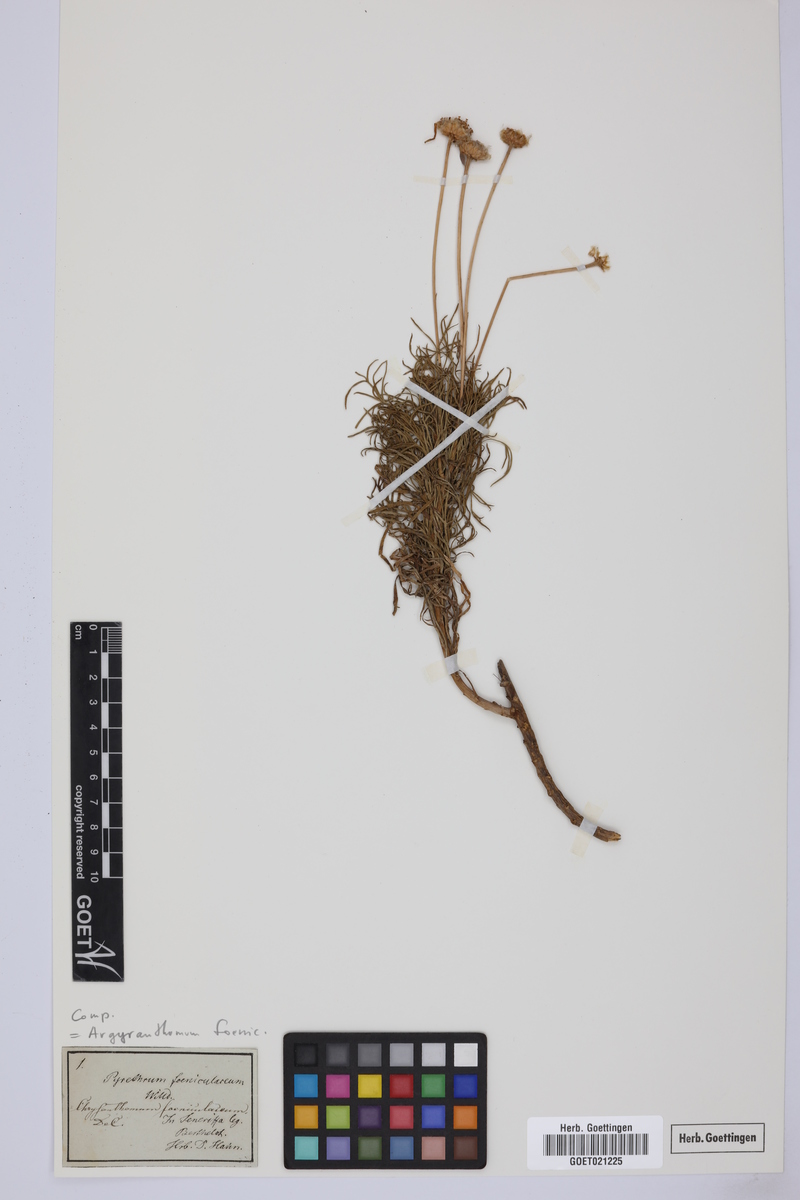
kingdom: Plantae
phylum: Tracheophyta
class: Magnoliopsida
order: Asterales
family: Asteraceae
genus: Argyranthemum
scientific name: Argyranthemum foeniculaceum
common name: Canary island marguerite
